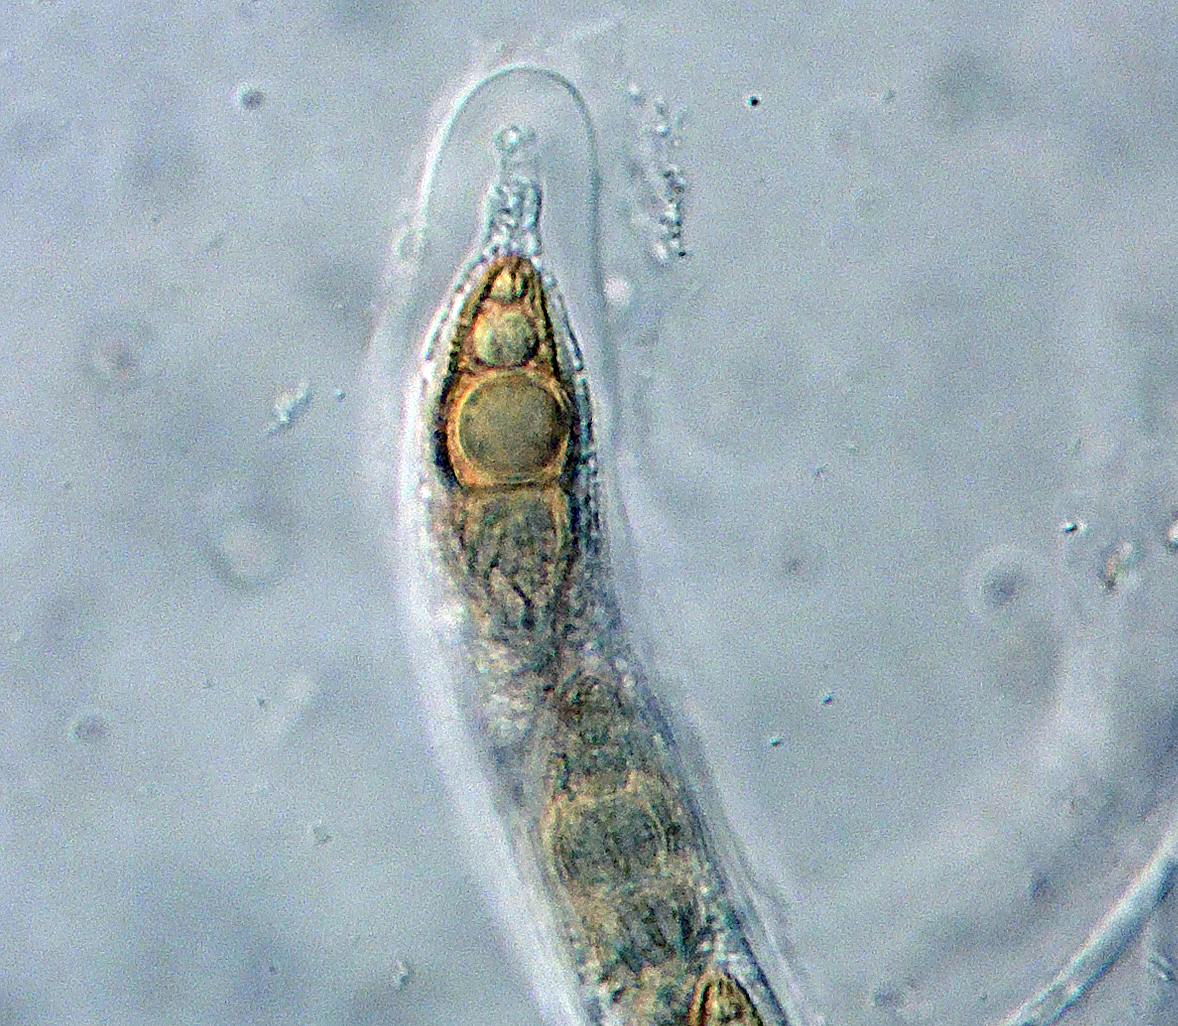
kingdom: Fungi
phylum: Ascomycota
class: Dothideomycetes
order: Pleosporales
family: Lophiostomataceae
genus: Lophiostoma
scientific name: Lophiostoma viridarium
